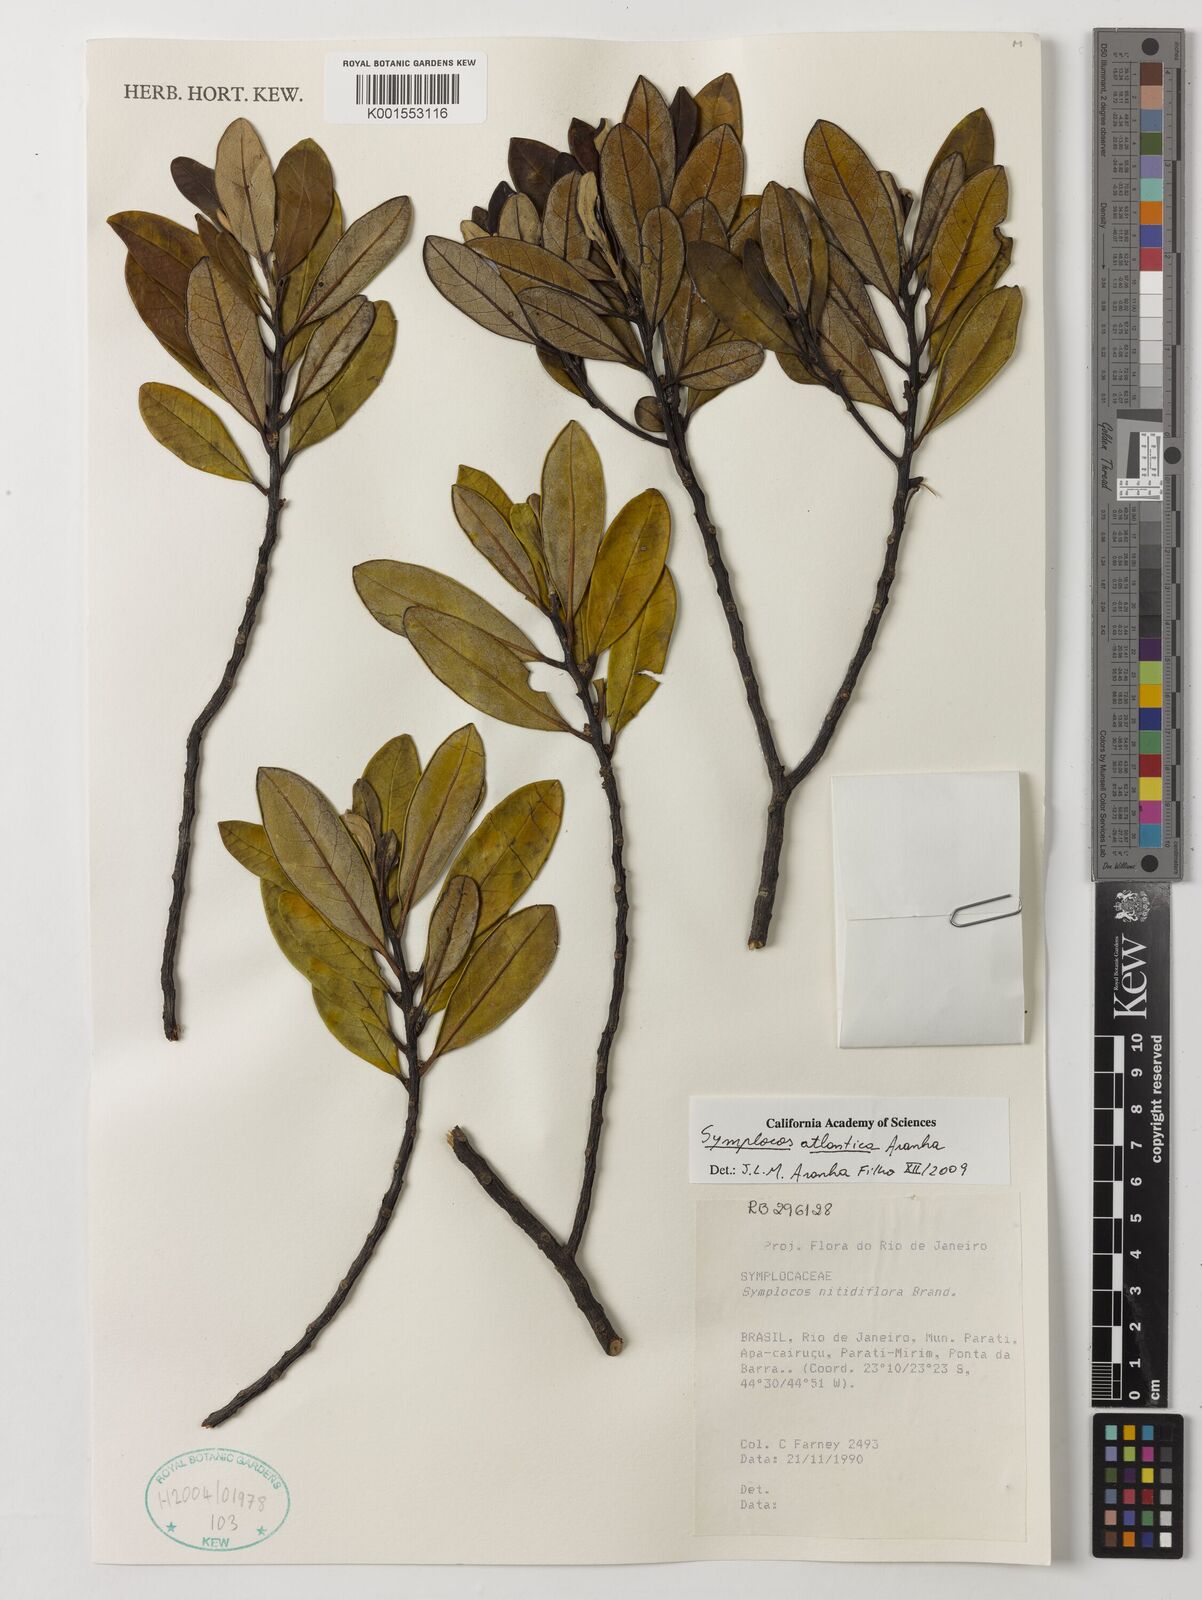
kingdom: Plantae
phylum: Tracheophyta
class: Magnoliopsida
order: Ericales
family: Symplocaceae
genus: Symplocos
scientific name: Symplocos atlantica
